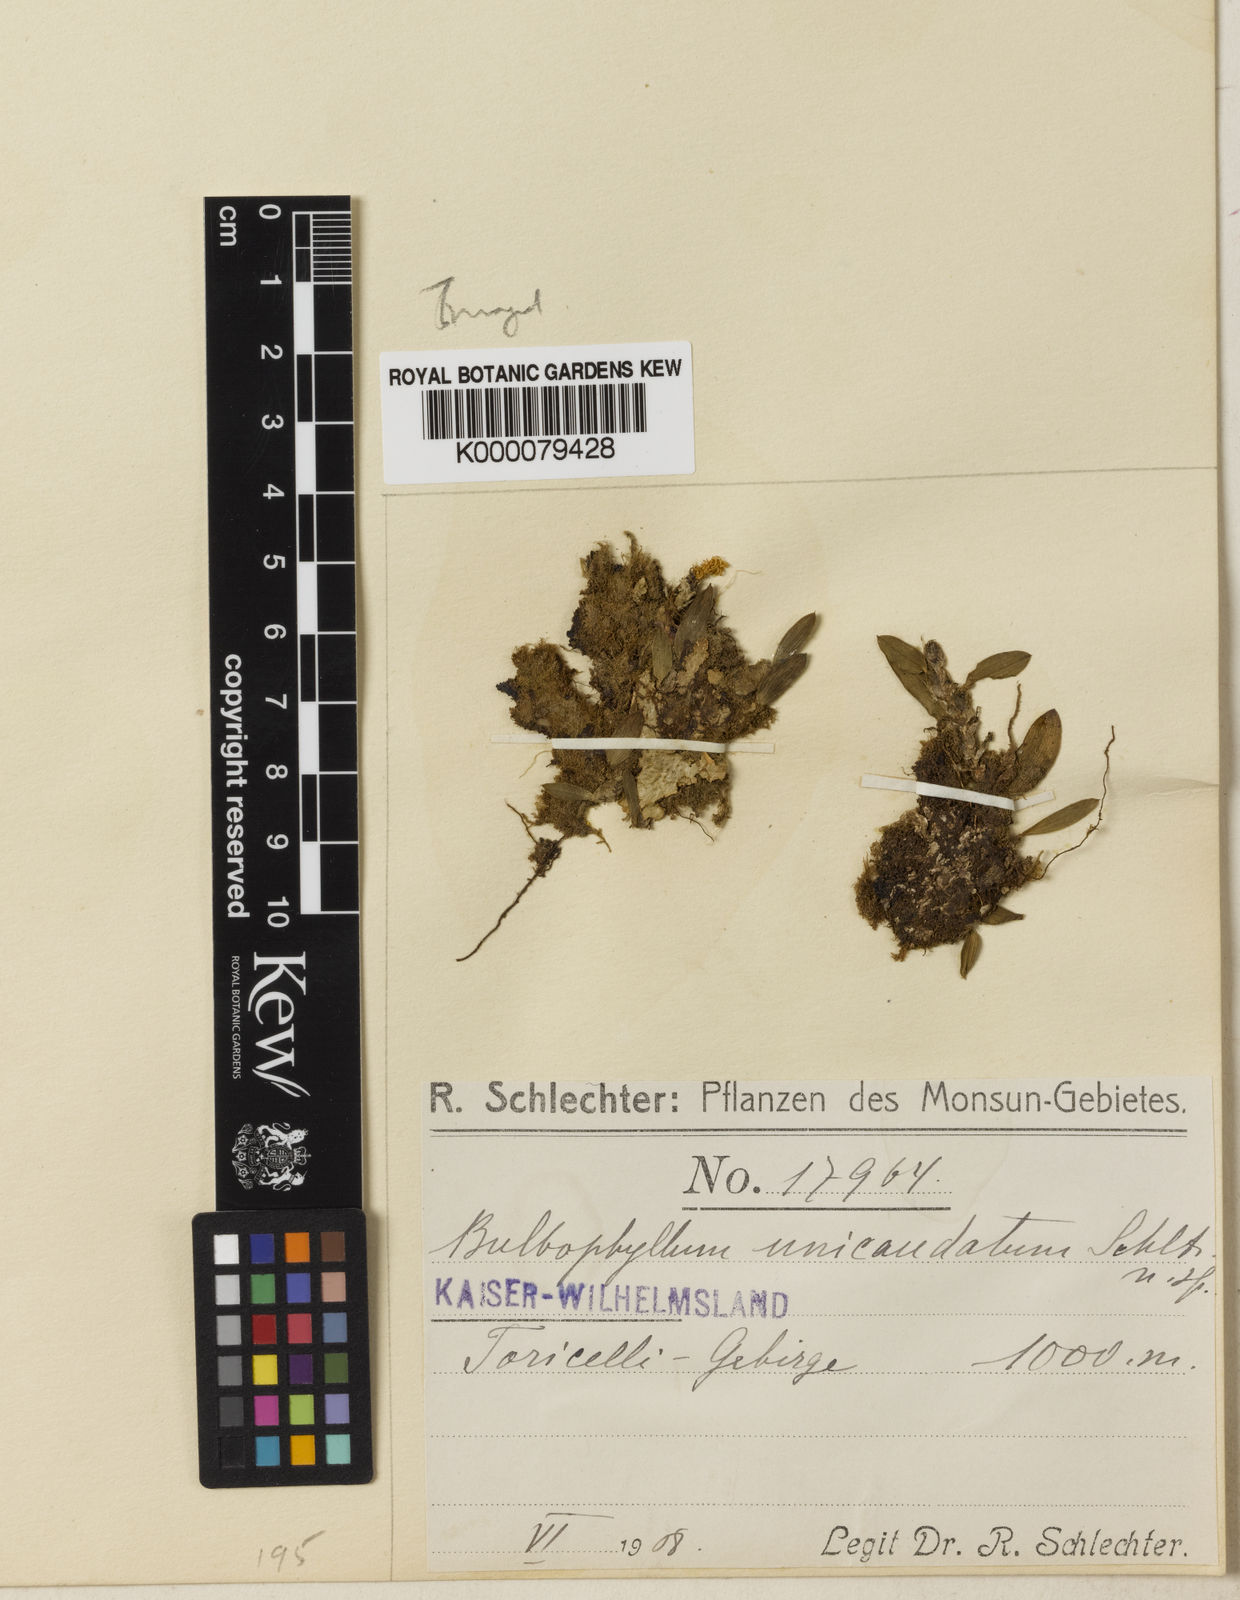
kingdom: Plantae
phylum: Tracheophyta
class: Liliopsida
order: Asparagales
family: Orchidaceae
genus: Bulbophyllum
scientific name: Bulbophyllum incumbens
